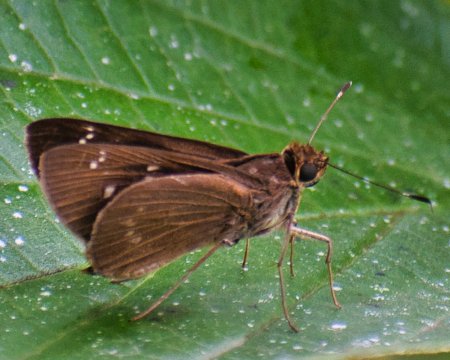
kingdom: Animalia
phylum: Arthropoda
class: Insecta
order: Lepidoptera
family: Hesperiidae
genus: Cobalopsis
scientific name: Cobalopsis autumna
